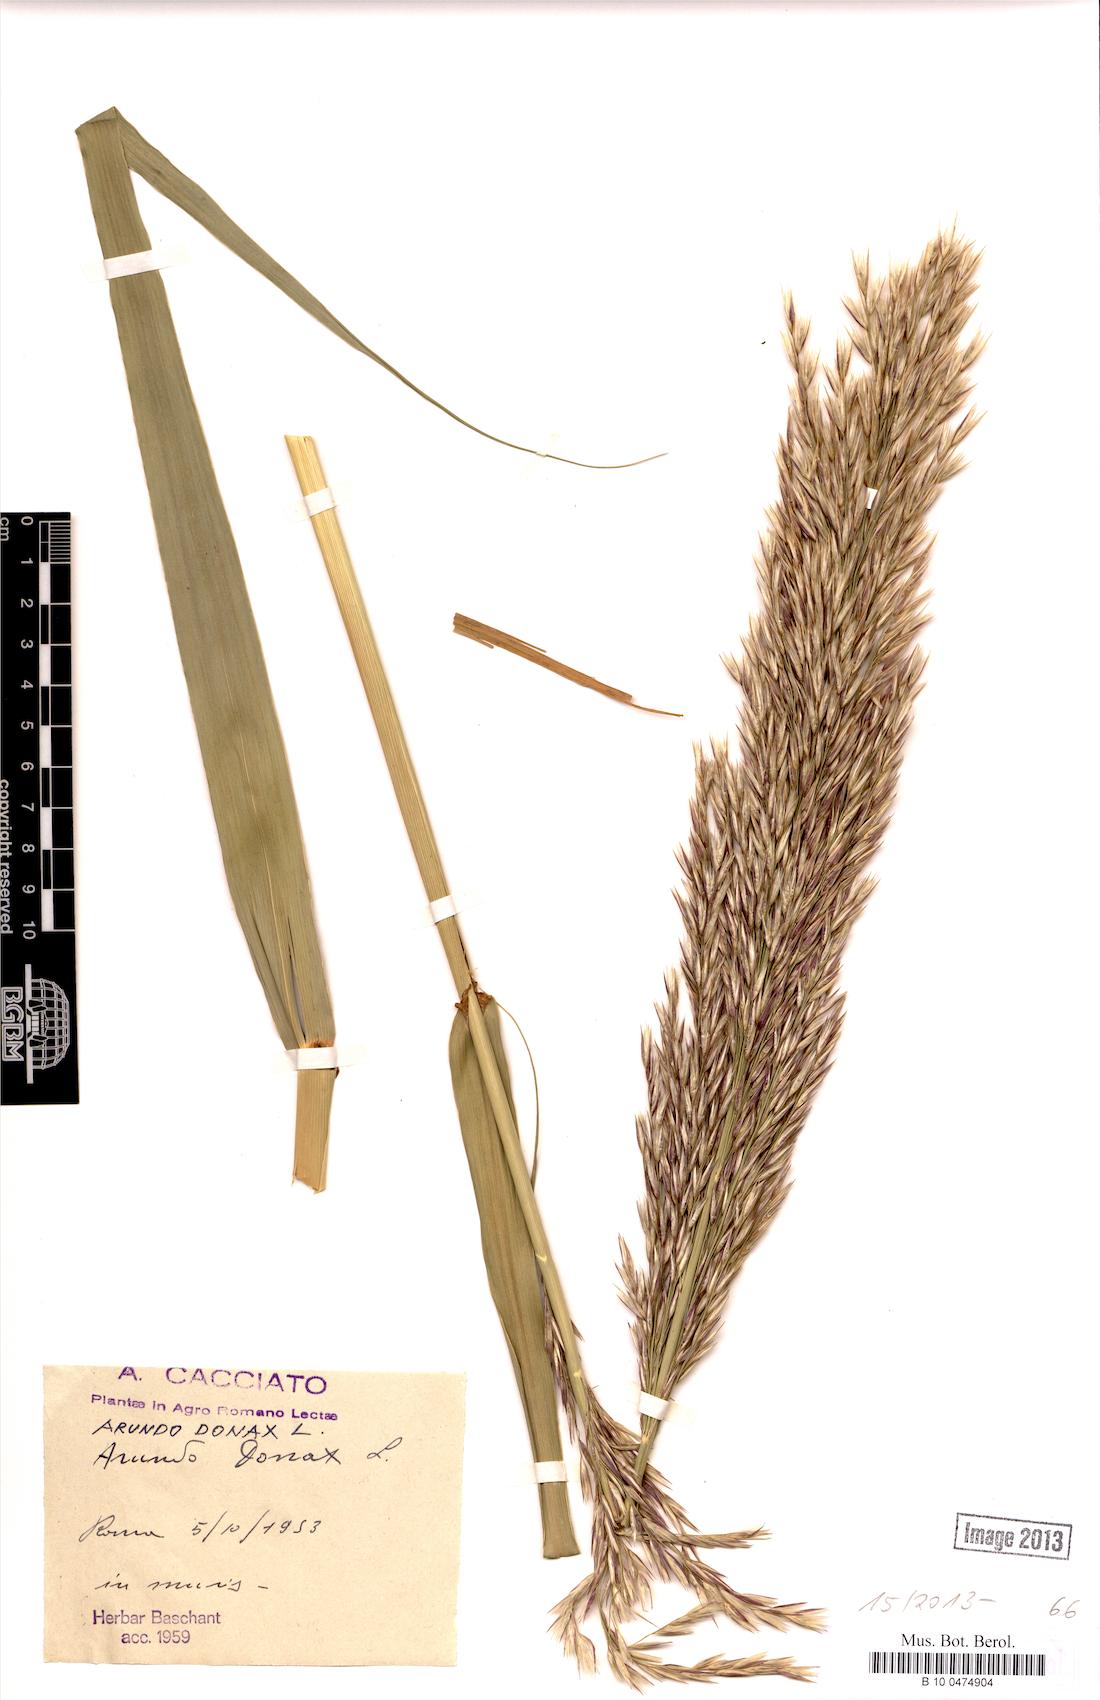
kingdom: Plantae
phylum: Tracheophyta
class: Liliopsida
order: Poales
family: Poaceae
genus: Arundo
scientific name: Arundo donax
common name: Giant reed
